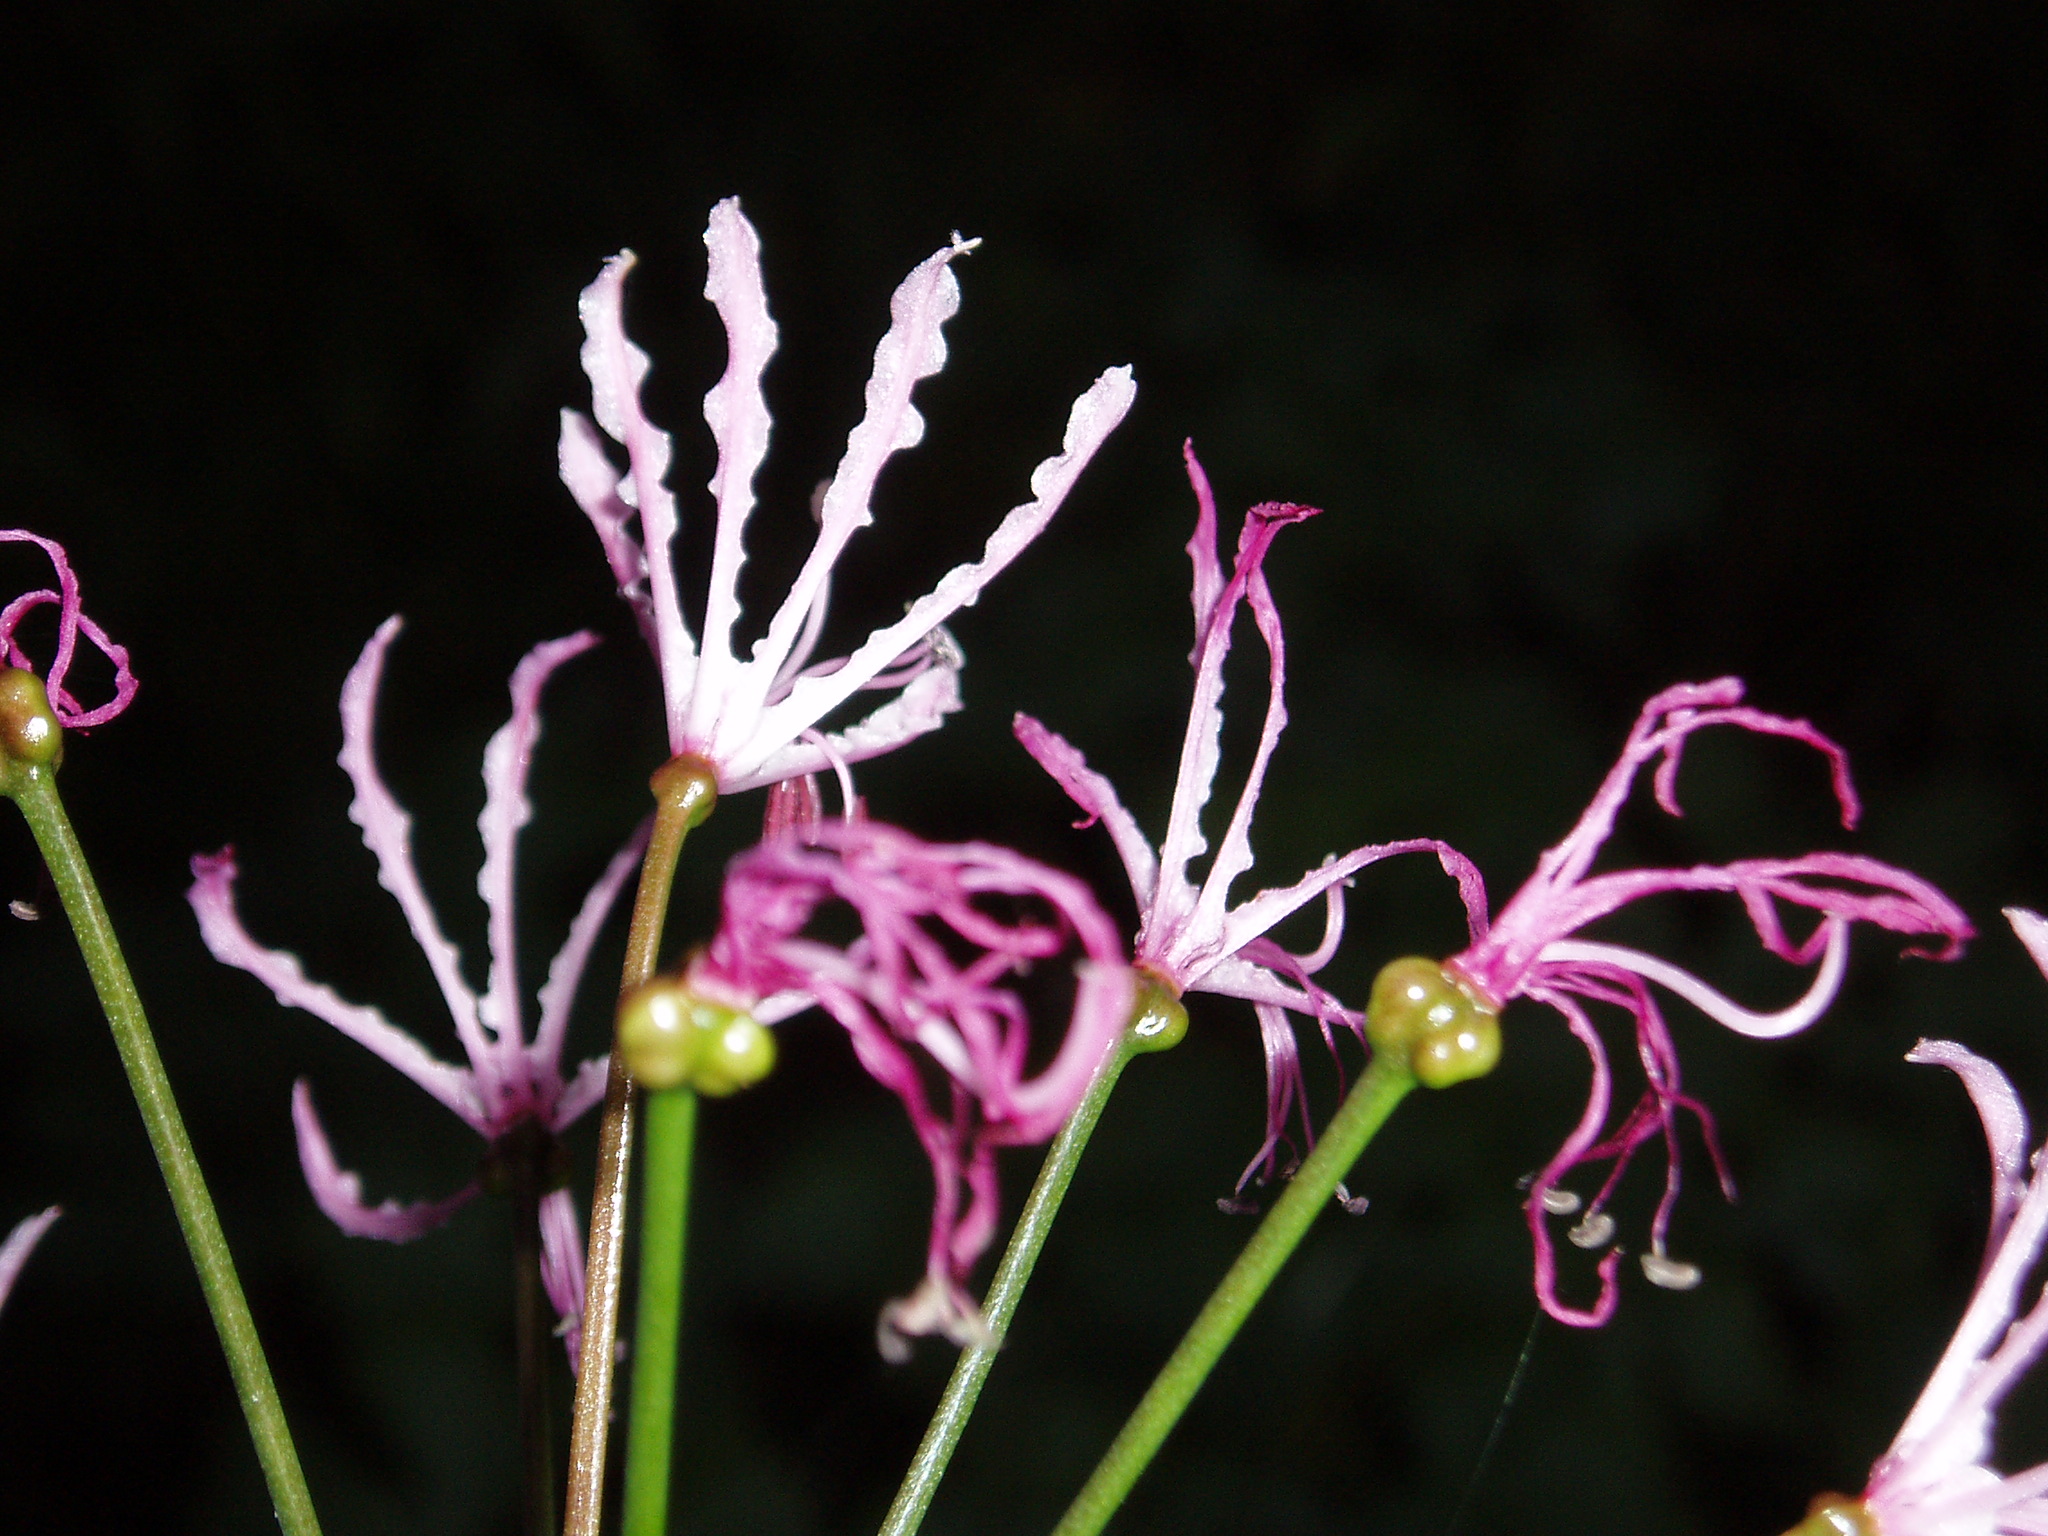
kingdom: Plantae
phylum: Tracheophyta
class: Liliopsida
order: Asparagales
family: Amaryllidaceae
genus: Nerine
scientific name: Nerine filifolia
